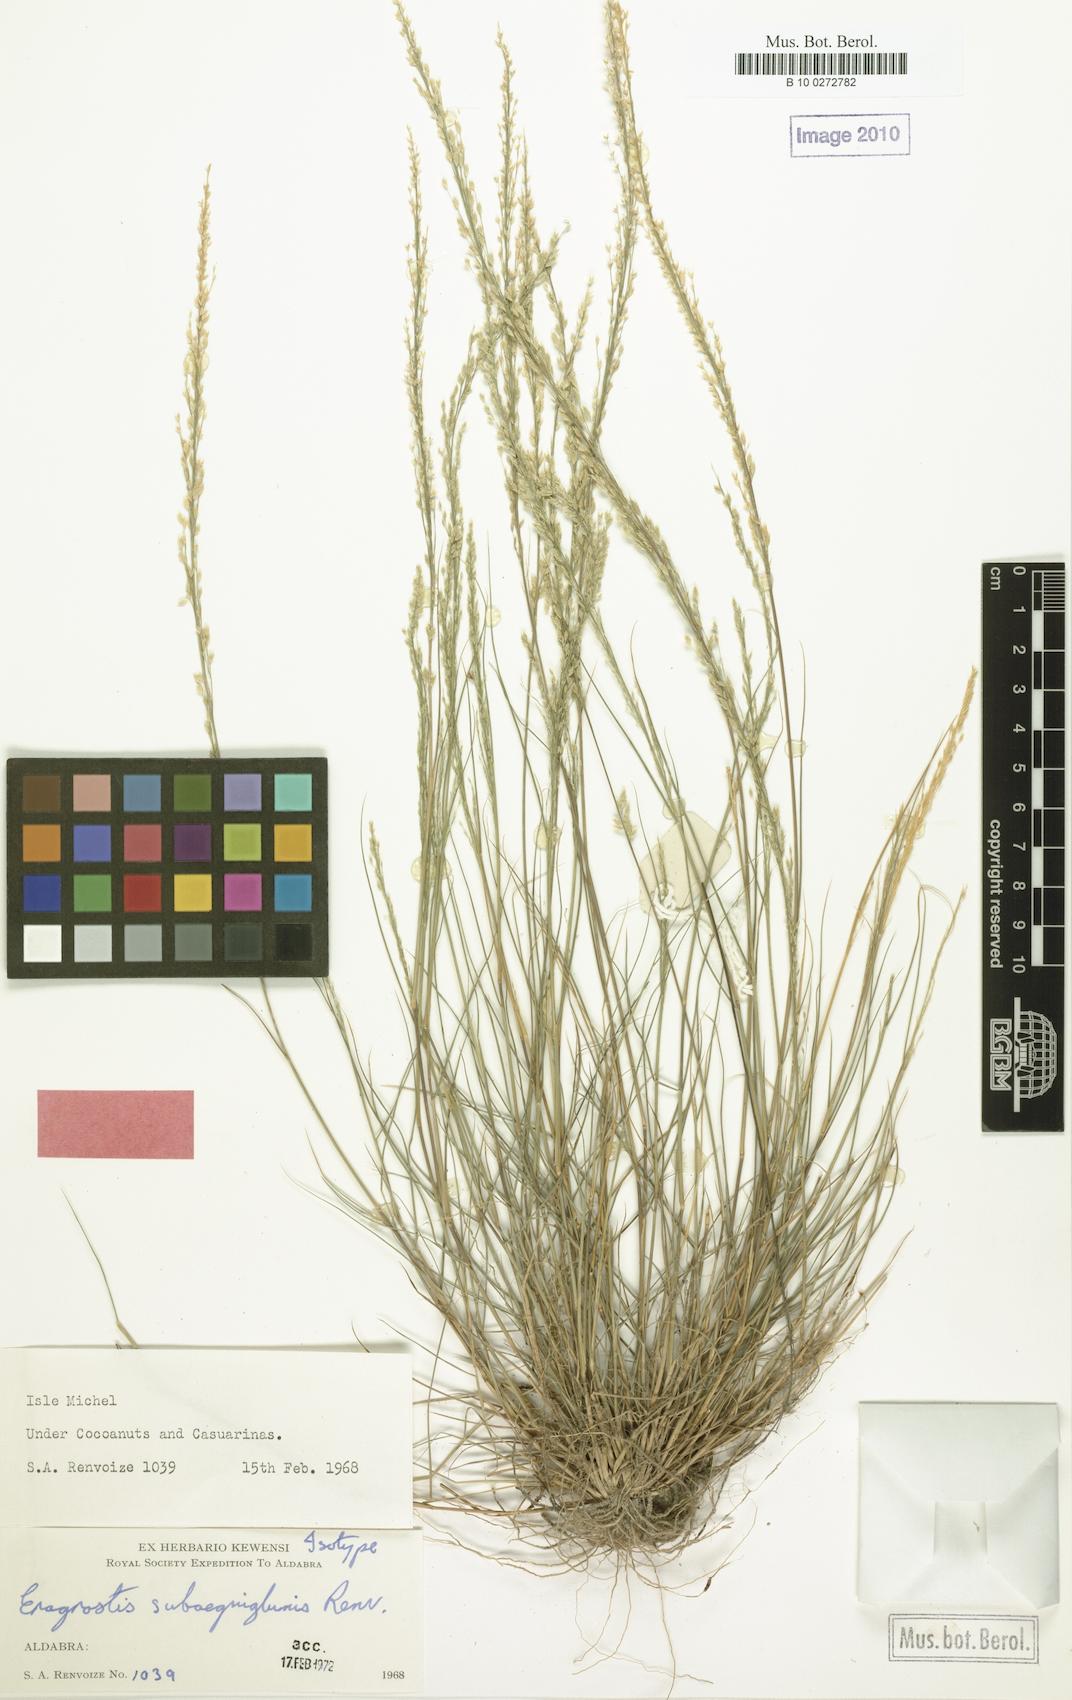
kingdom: Plantae
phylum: Tracheophyta
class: Liliopsida
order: Poales
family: Poaceae
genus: Eragrostis
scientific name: Eragrostis subaequiglumis
